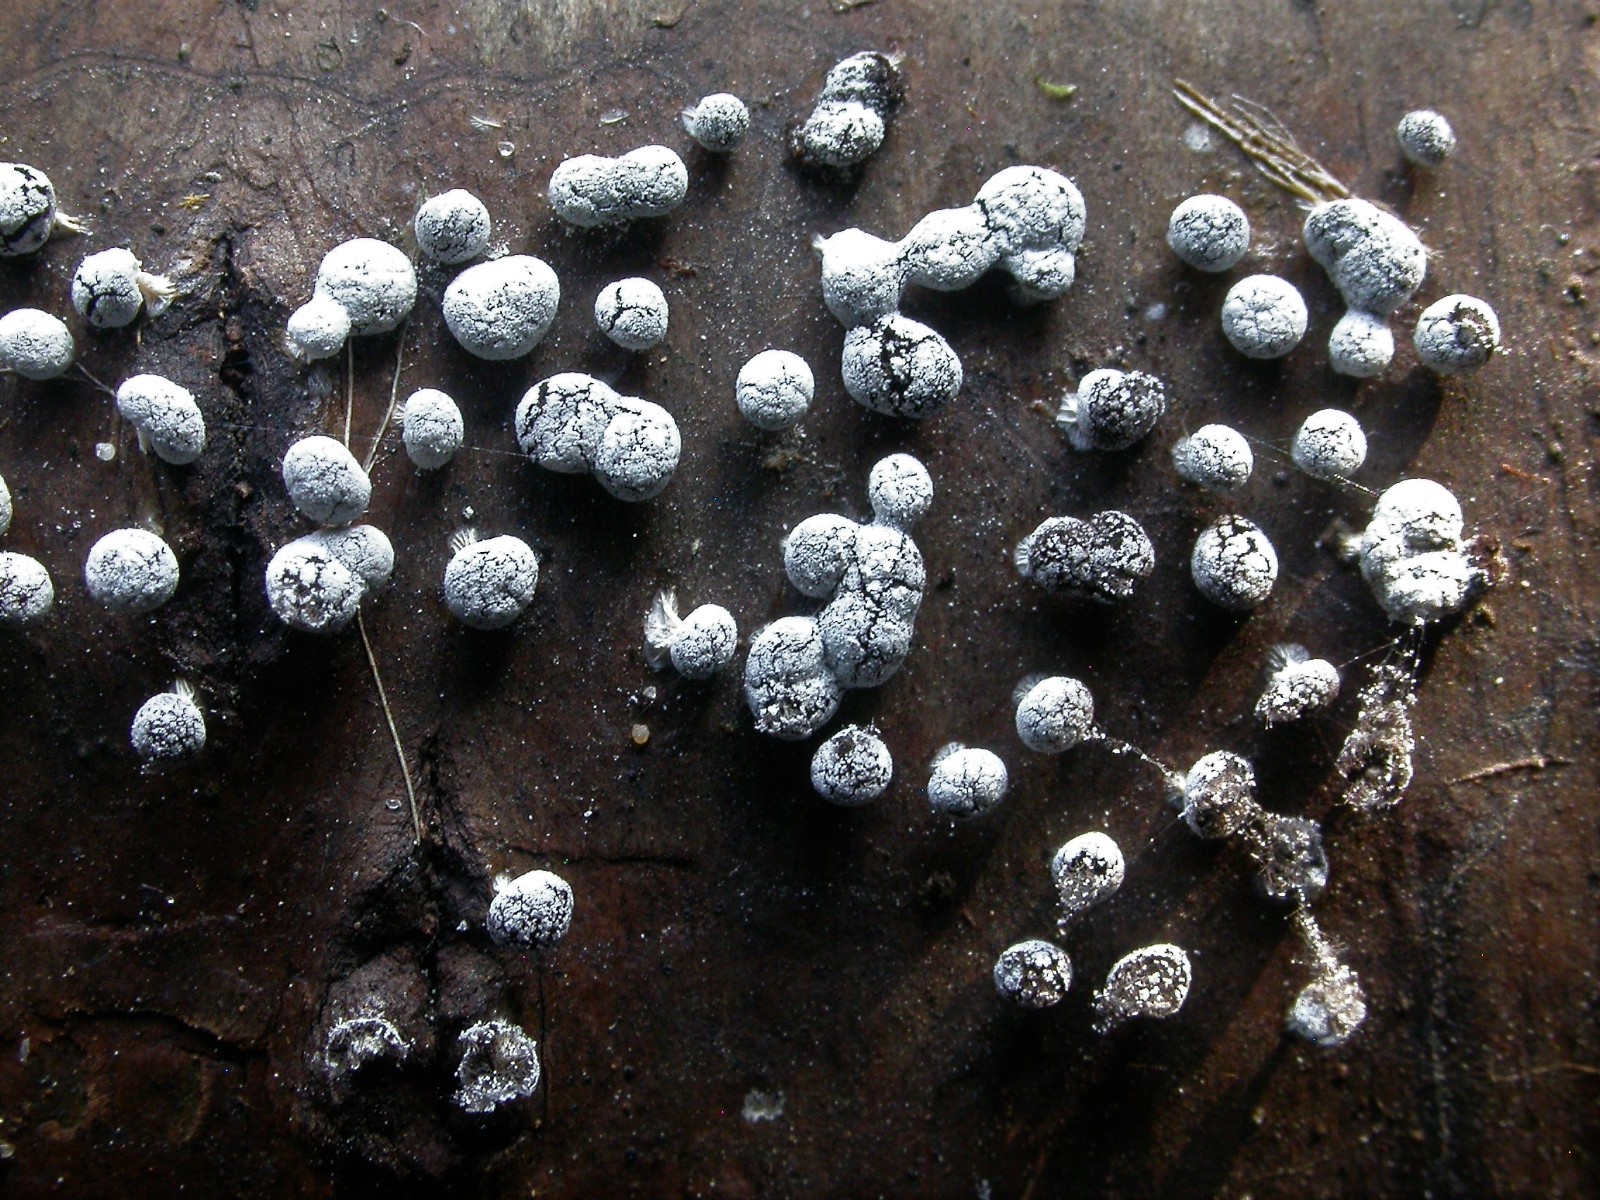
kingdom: Protozoa
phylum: Mycetozoa
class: Myxomycetes
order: Physarales
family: Didymiaceae
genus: Didymium
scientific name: Didymium squamulosum
